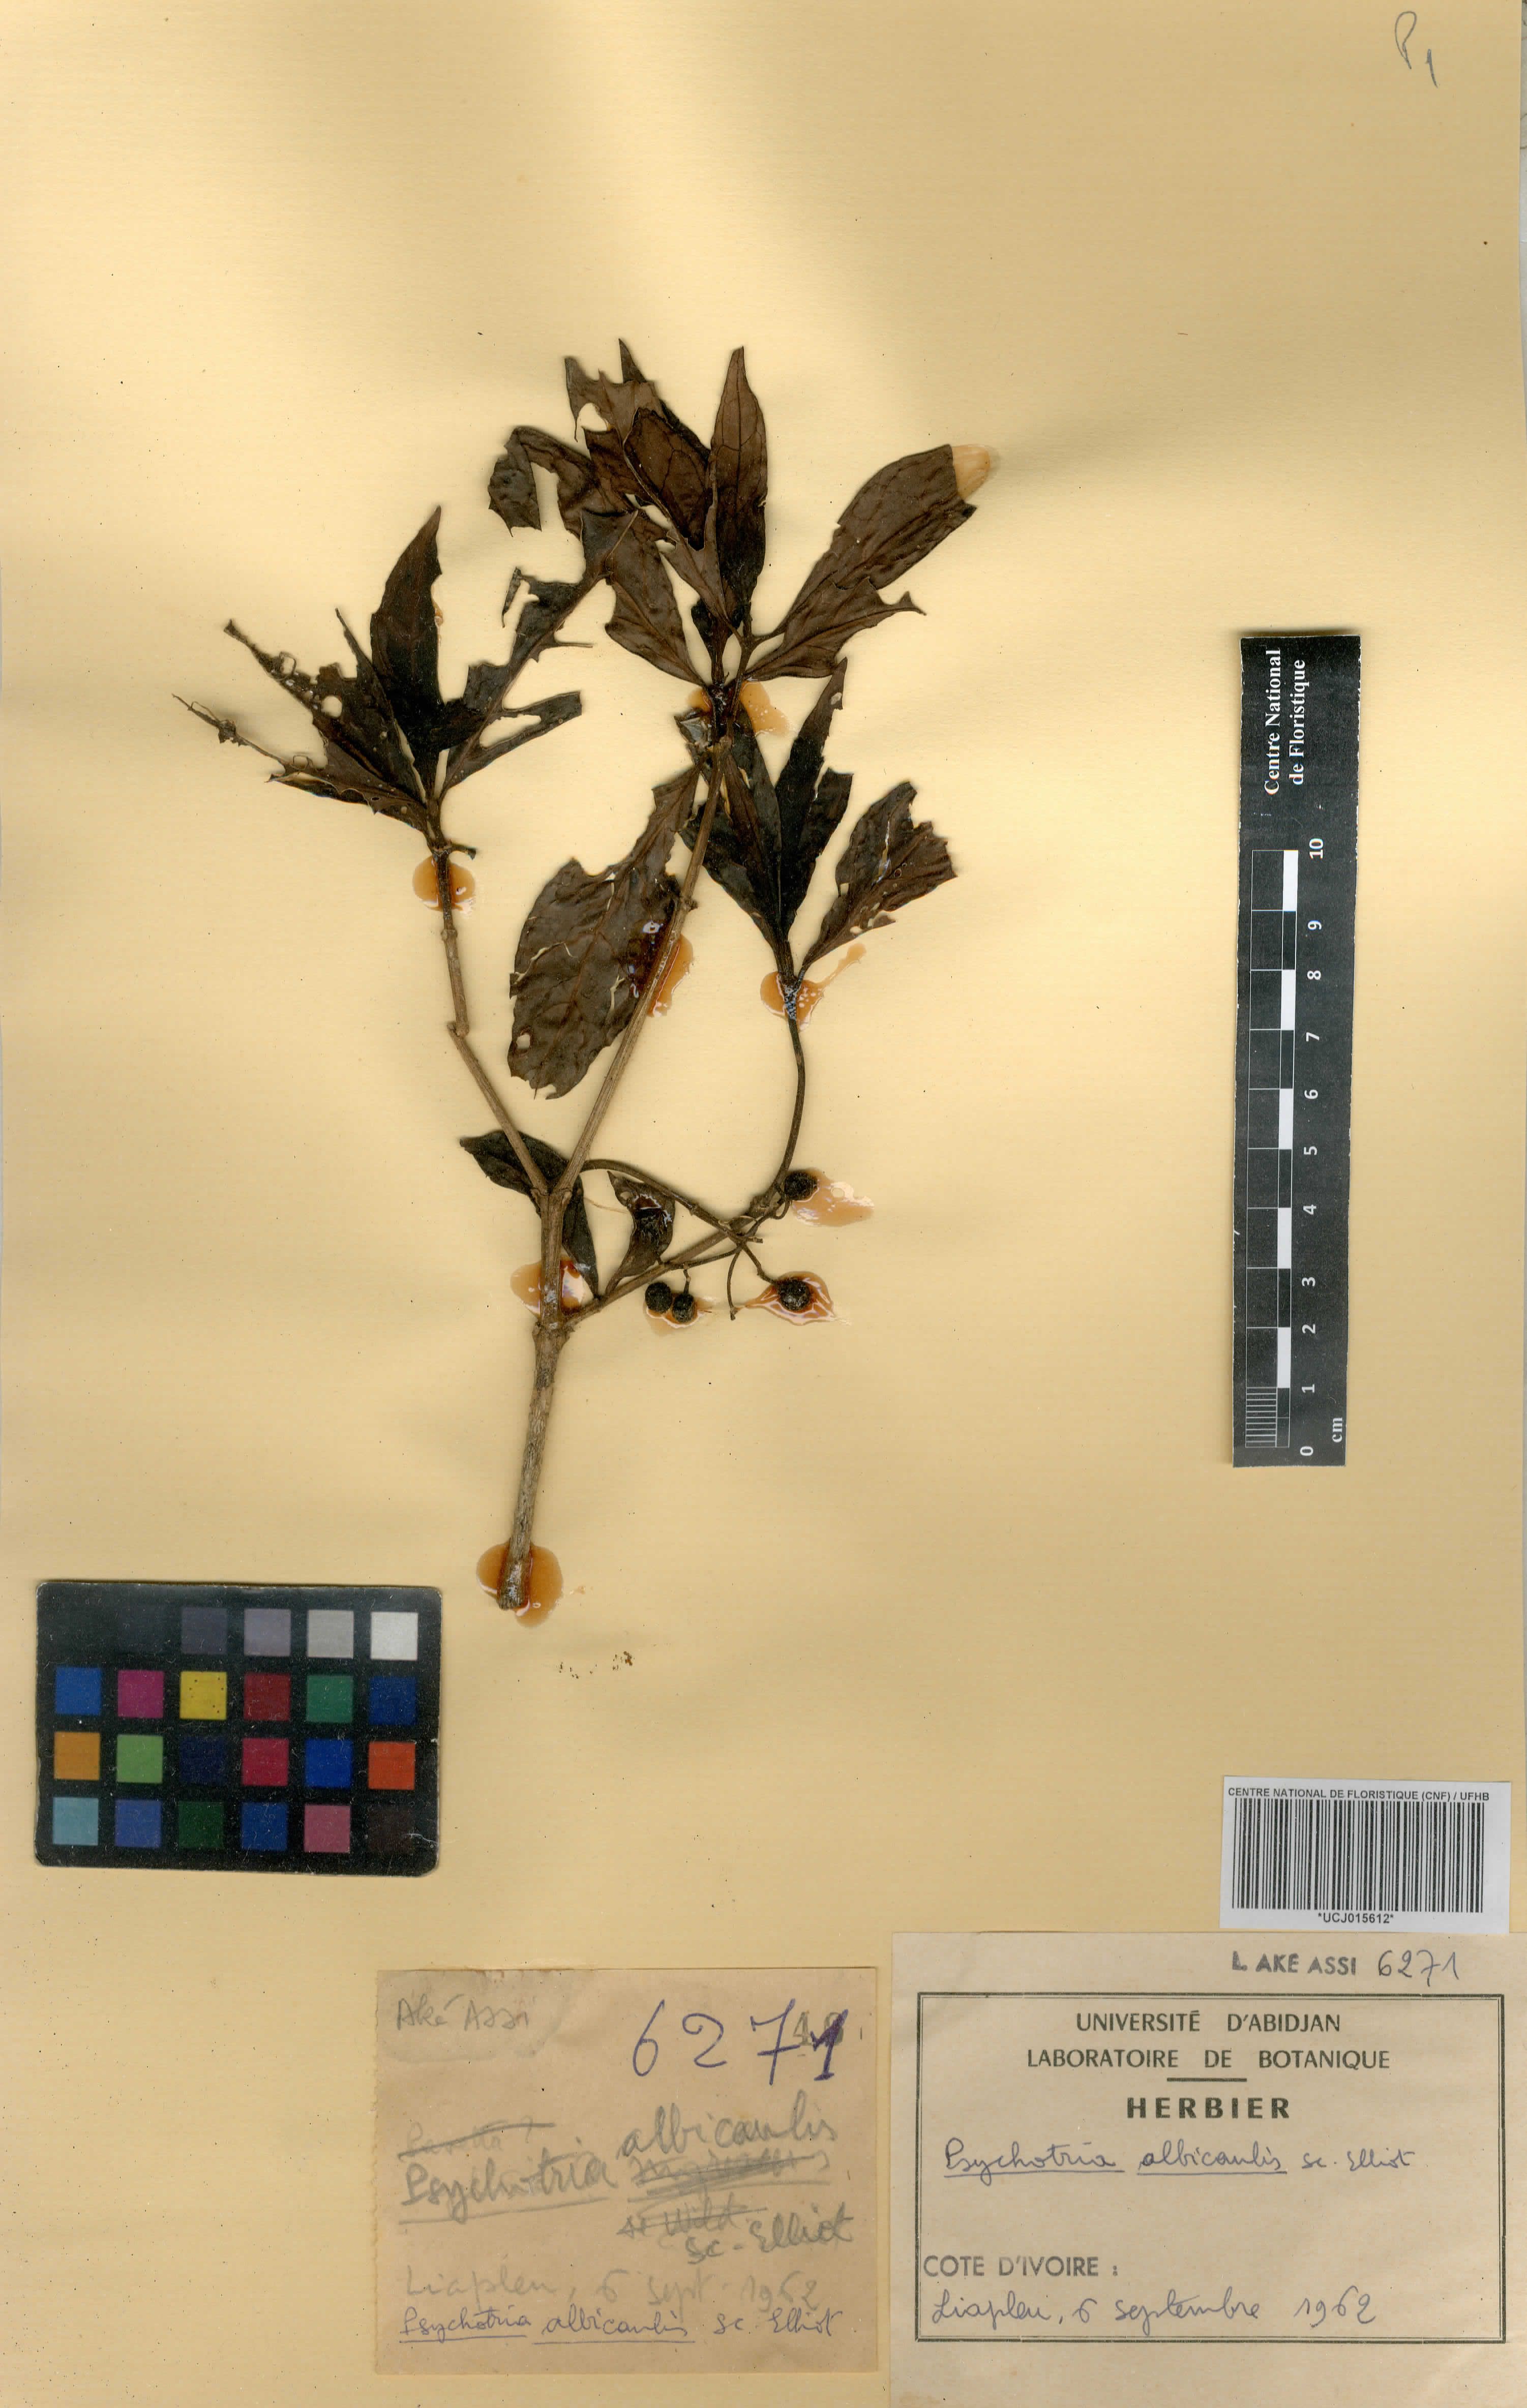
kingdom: Plantae
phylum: Tracheophyta
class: Magnoliopsida
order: Gentianales
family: Rubiaceae
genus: Psychotria
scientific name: Psychotria albicaulis
